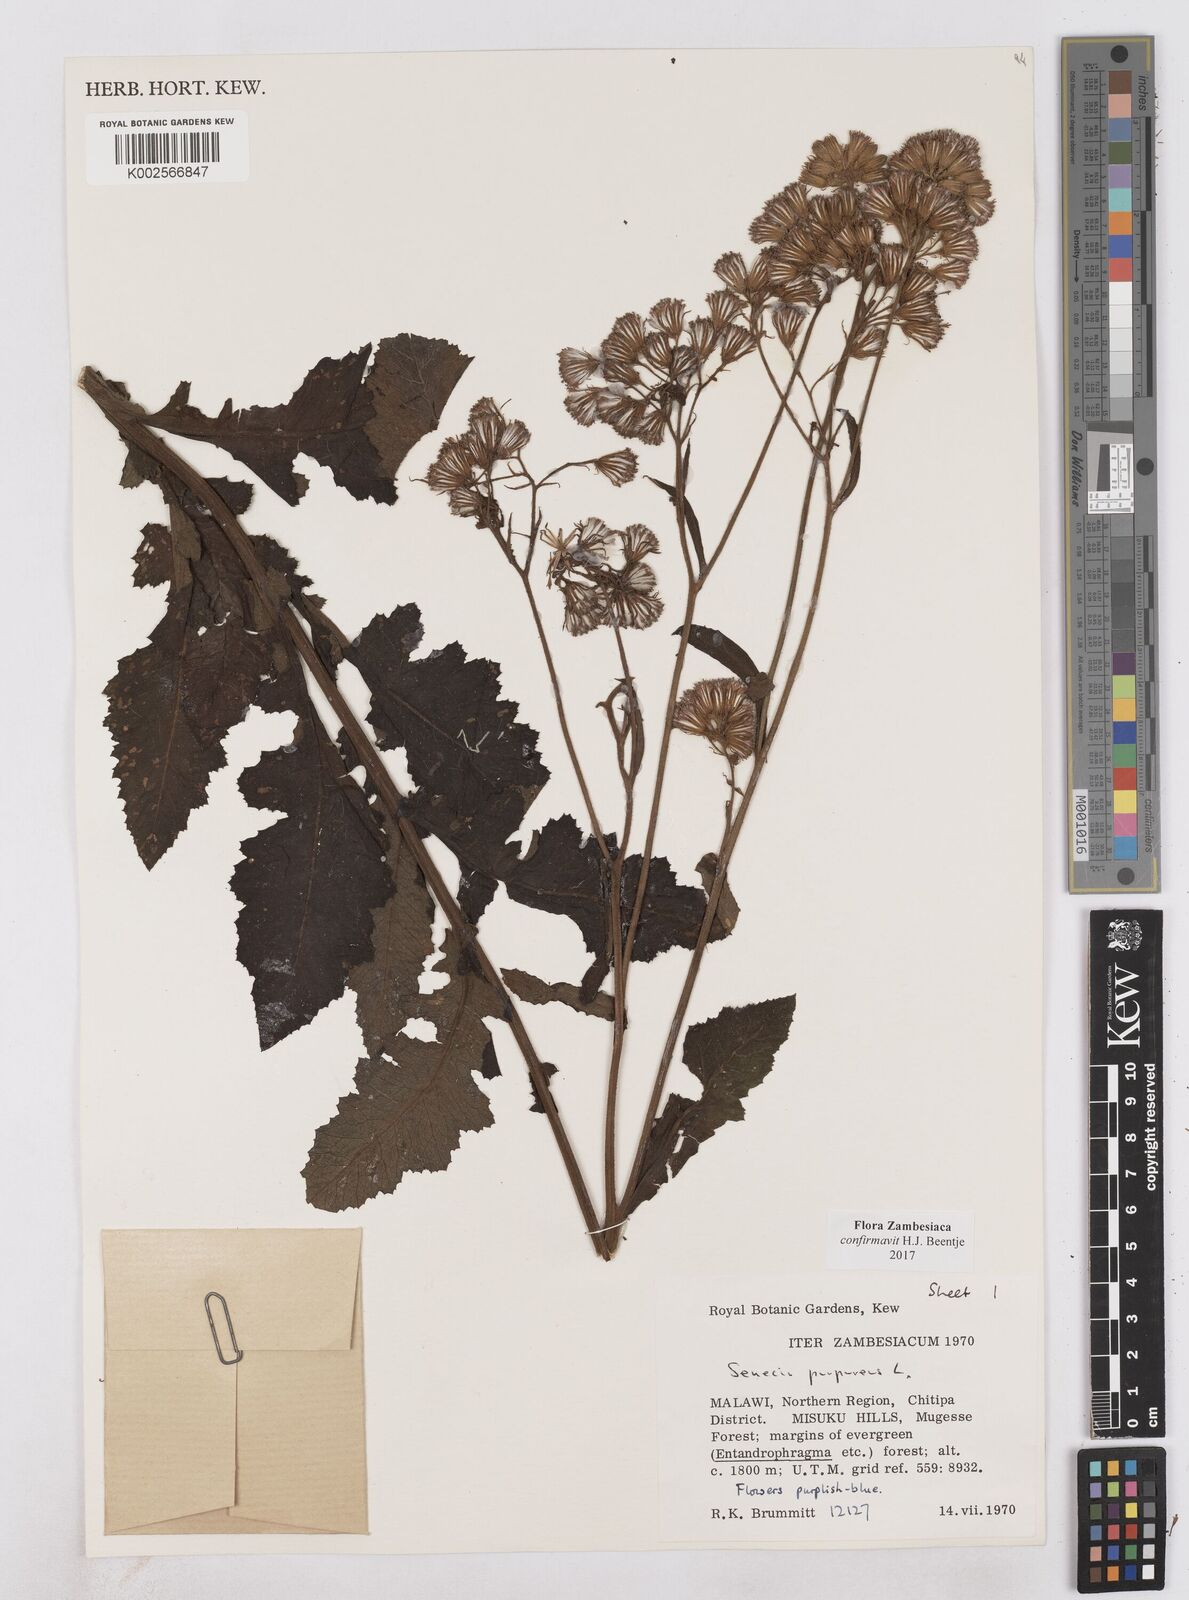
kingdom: Plantae
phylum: Tracheophyta
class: Magnoliopsida
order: Asterales
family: Asteraceae
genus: Senecio
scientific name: Senecio purpureus
